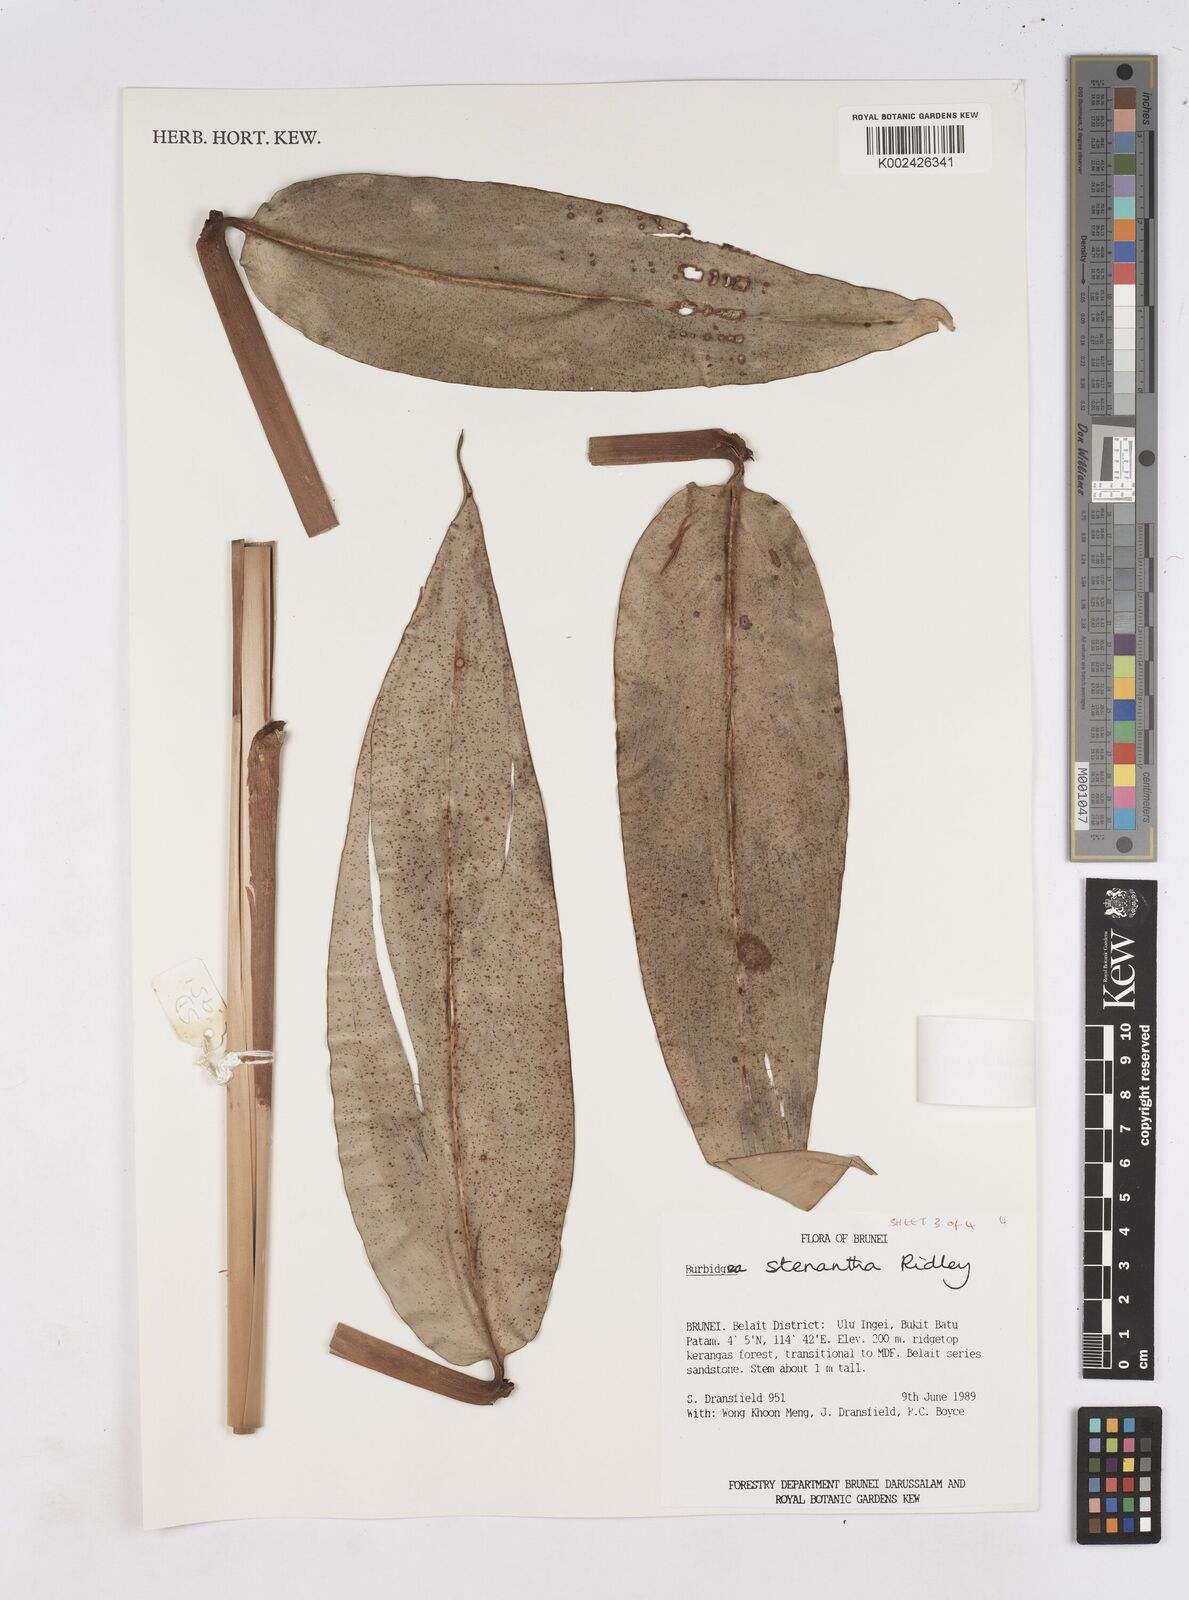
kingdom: Plantae
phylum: Tracheophyta
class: Liliopsida
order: Zingiberales
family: Zingiberaceae
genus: Burbidgea
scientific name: Burbidgea stenantha
